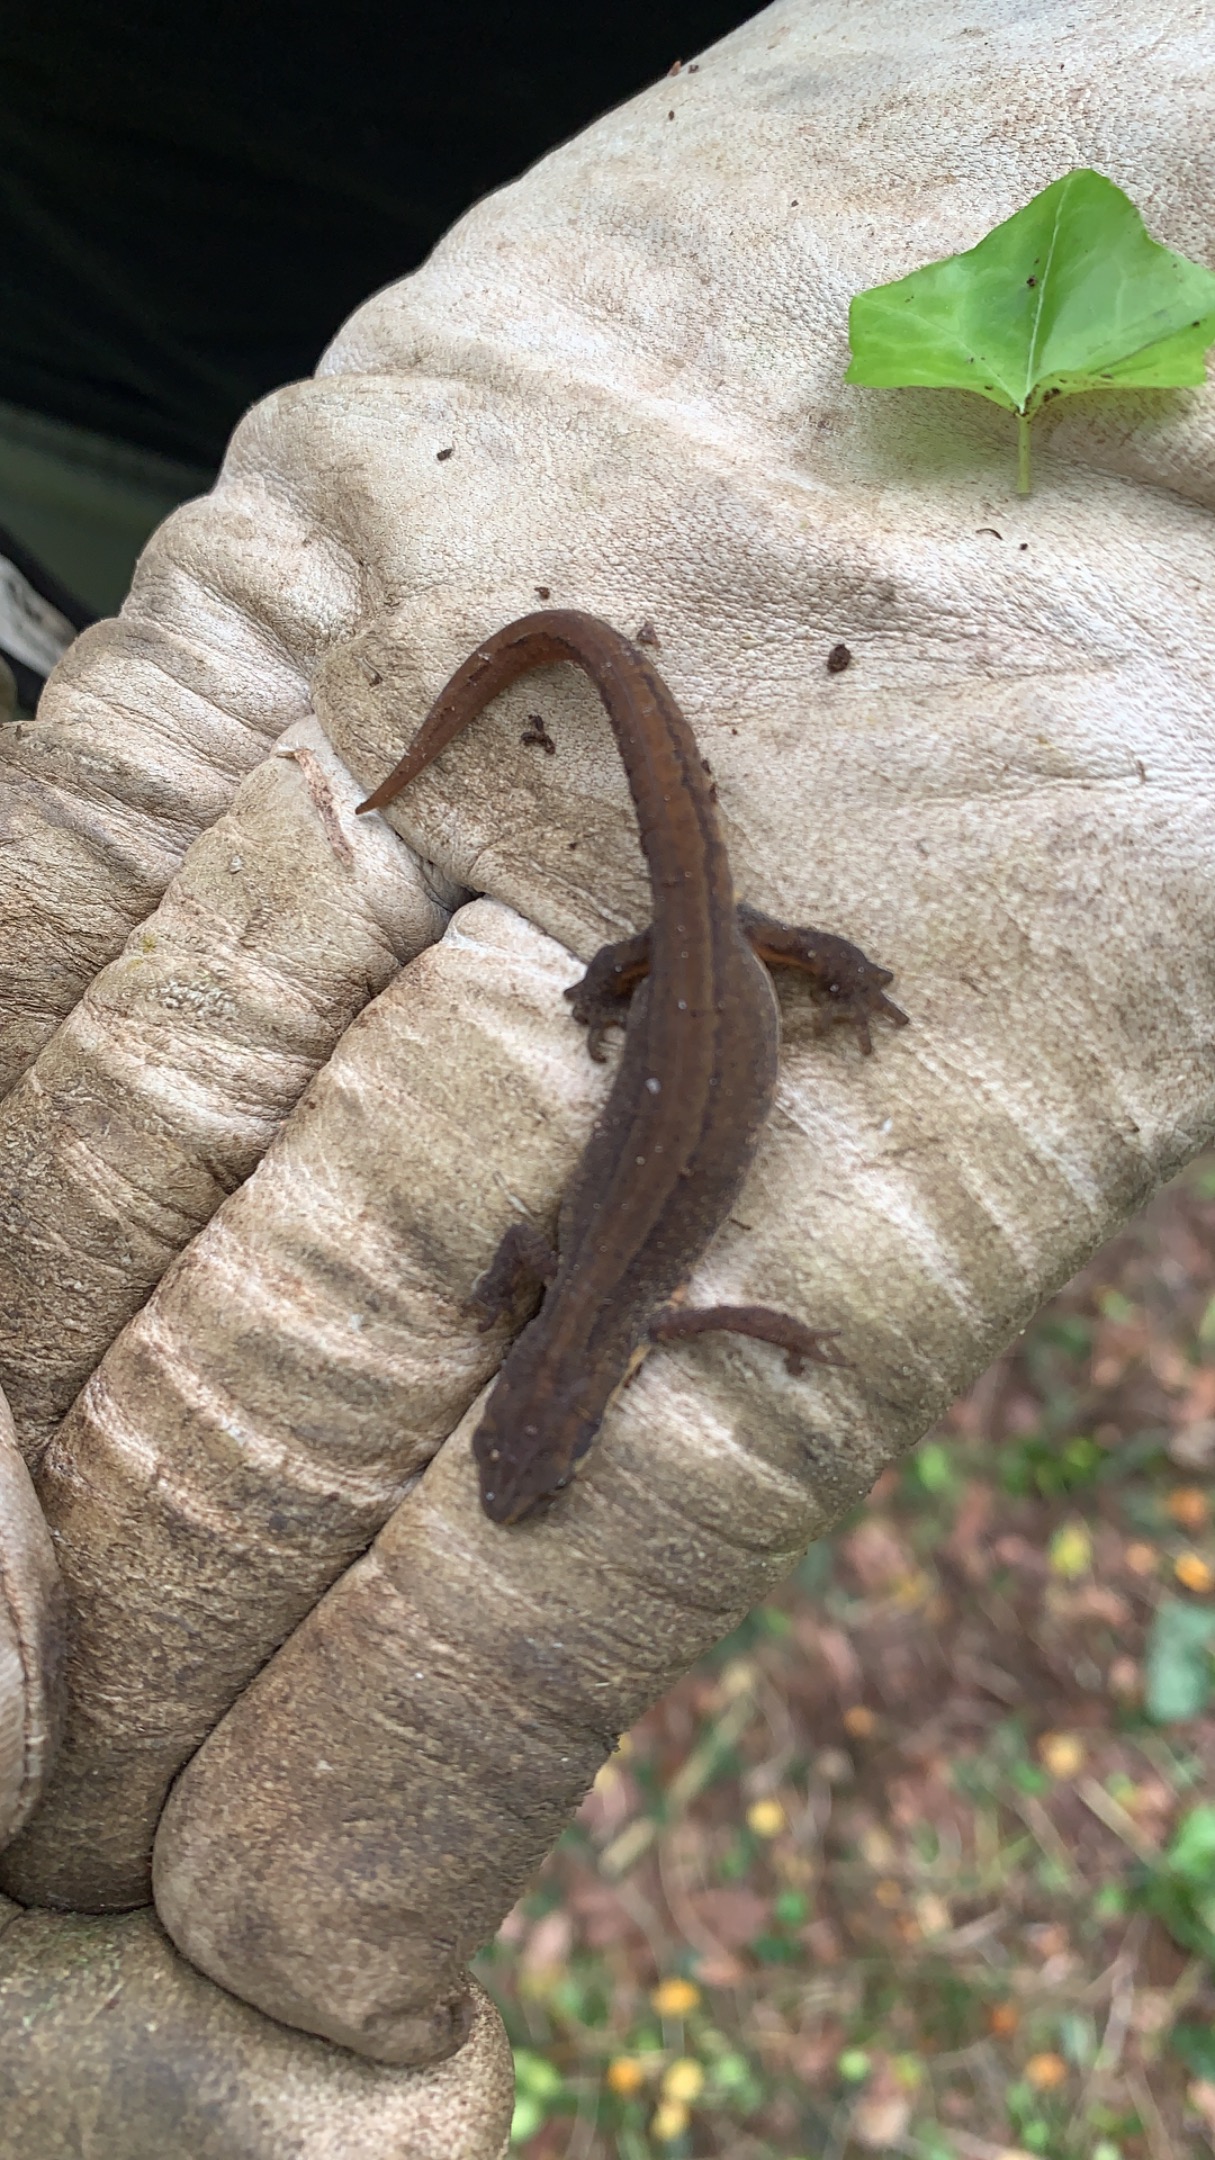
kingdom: Animalia
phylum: Chordata
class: Amphibia
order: Caudata
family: Salamandridae
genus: Lissotriton
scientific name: Lissotriton vulgaris
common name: Lille vandsalamander
